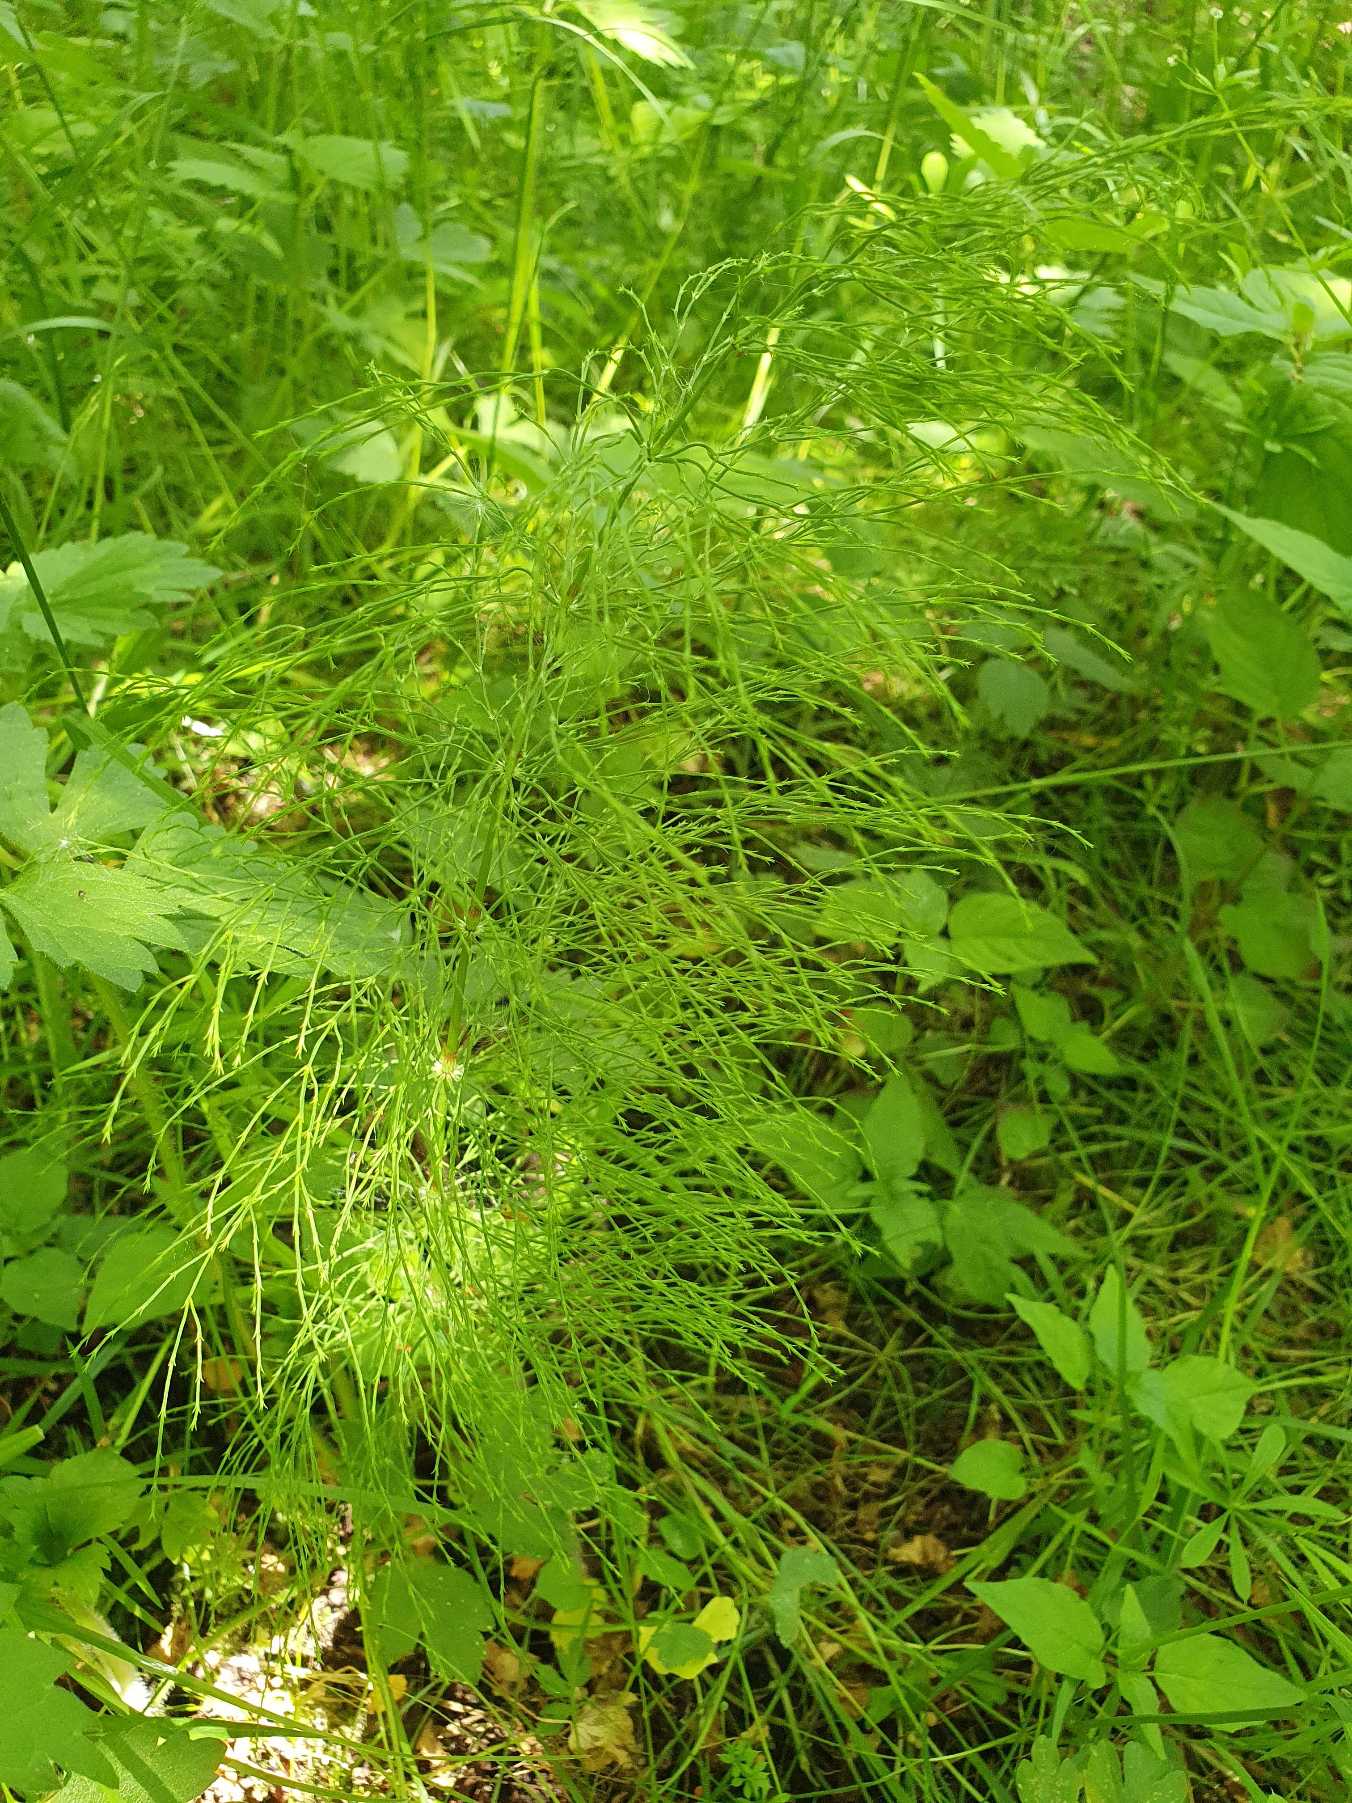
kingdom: Plantae
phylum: Tracheophyta
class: Polypodiopsida
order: Equisetales
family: Equisetaceae
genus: Equisetum
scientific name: Equisetum sylvaticum
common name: Skov-padderok
